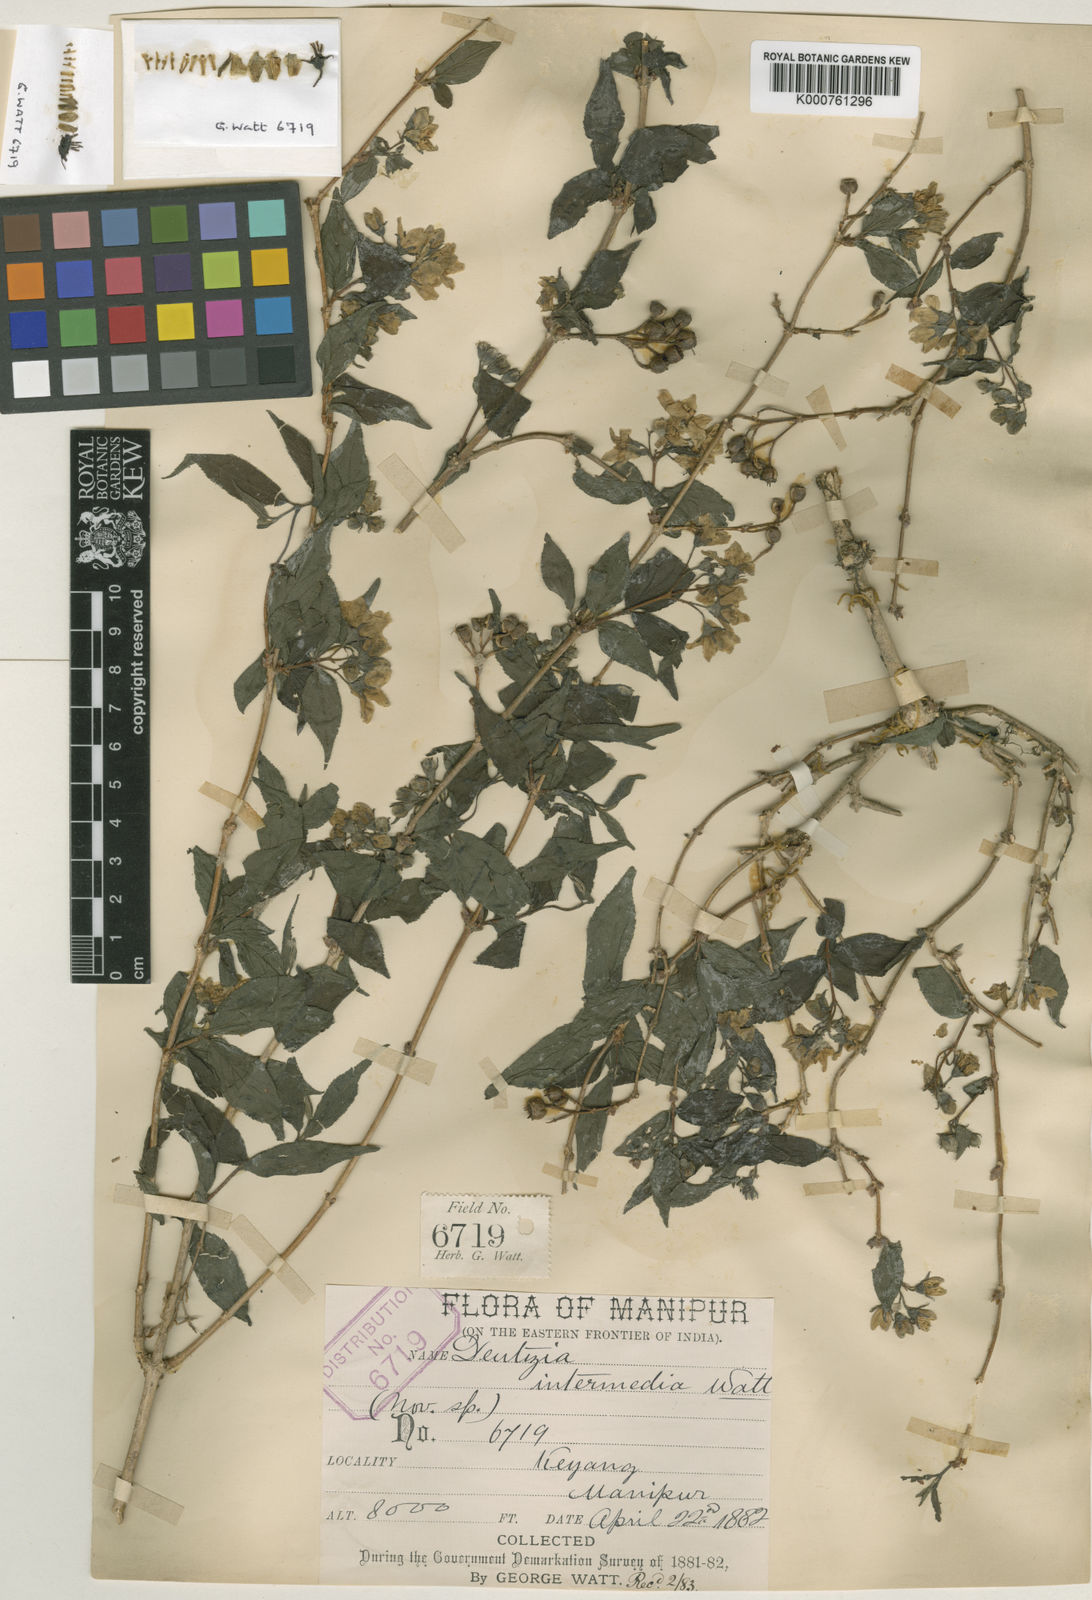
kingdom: Plantae
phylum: Tracheophyta
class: Magnoliopsida
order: Cornales
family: Hydrangeaceae
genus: Deutzia
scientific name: Deutzia
